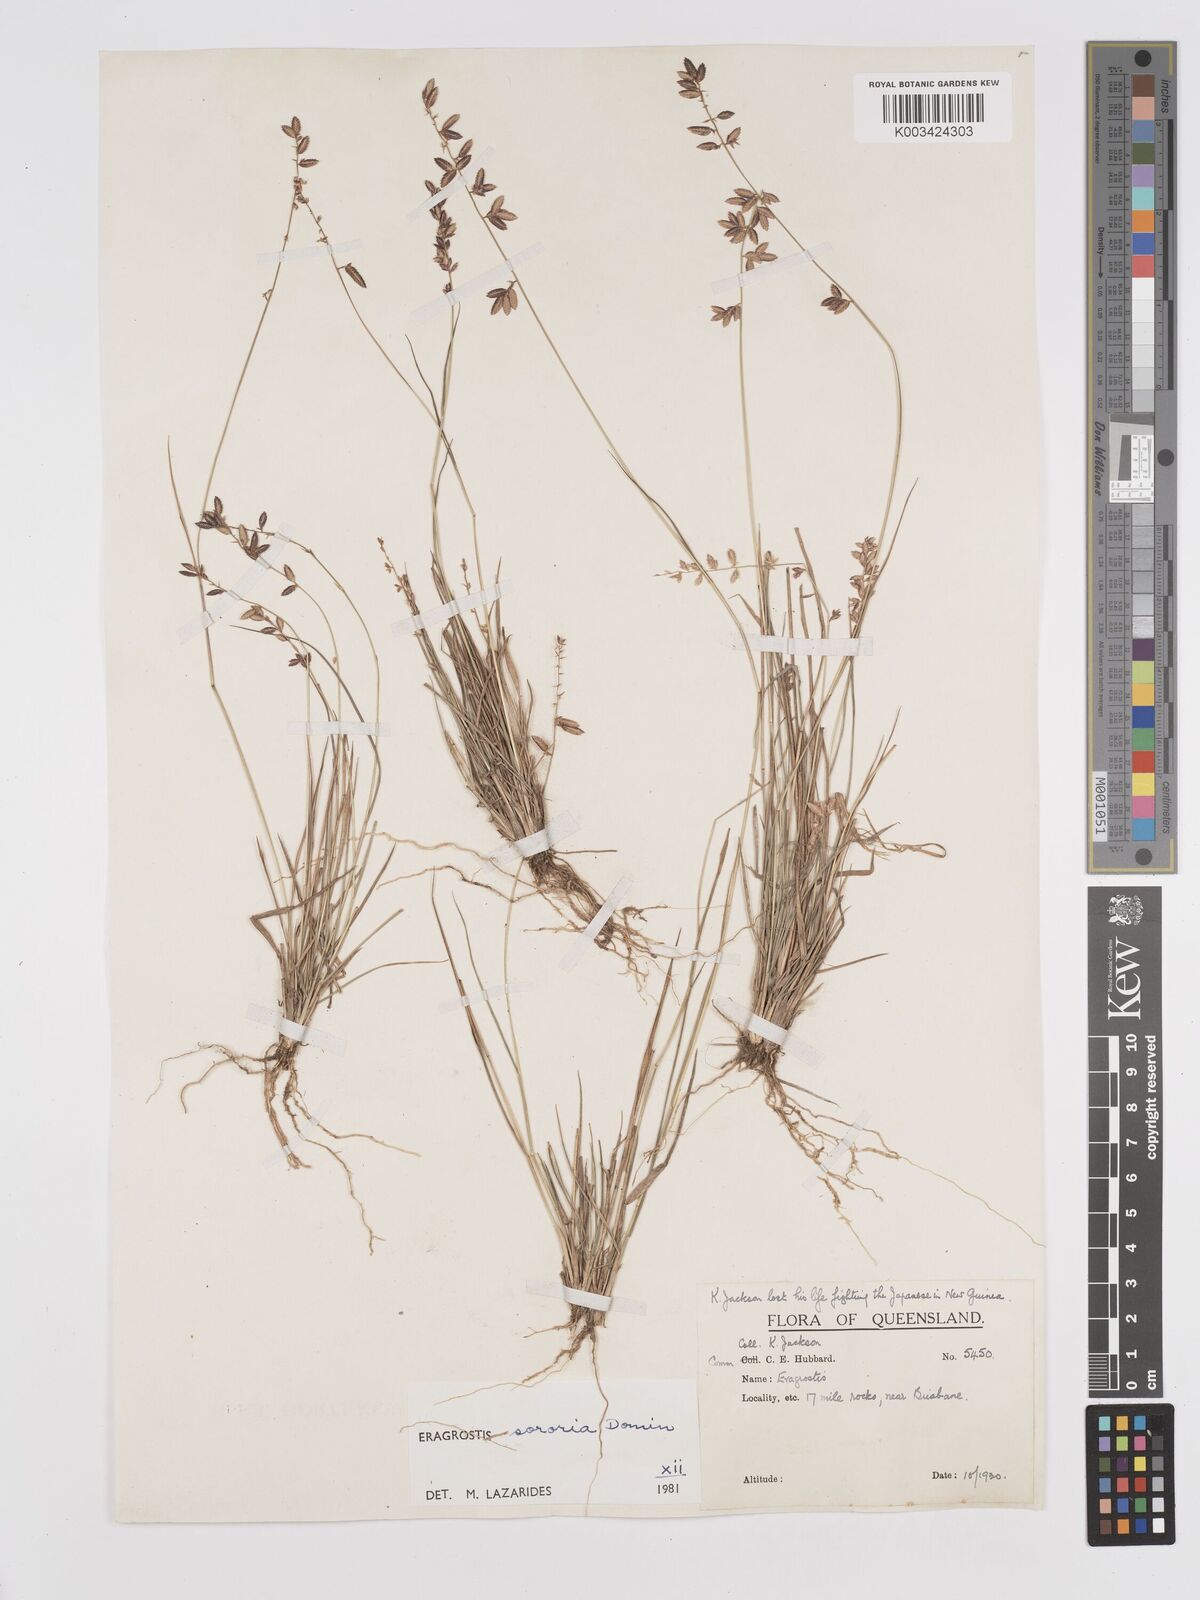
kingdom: Plantae
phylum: Tracheophyta
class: Liliopsida
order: Poales
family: Poaceae
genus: Eragrostis
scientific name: Eragrostis sororia
